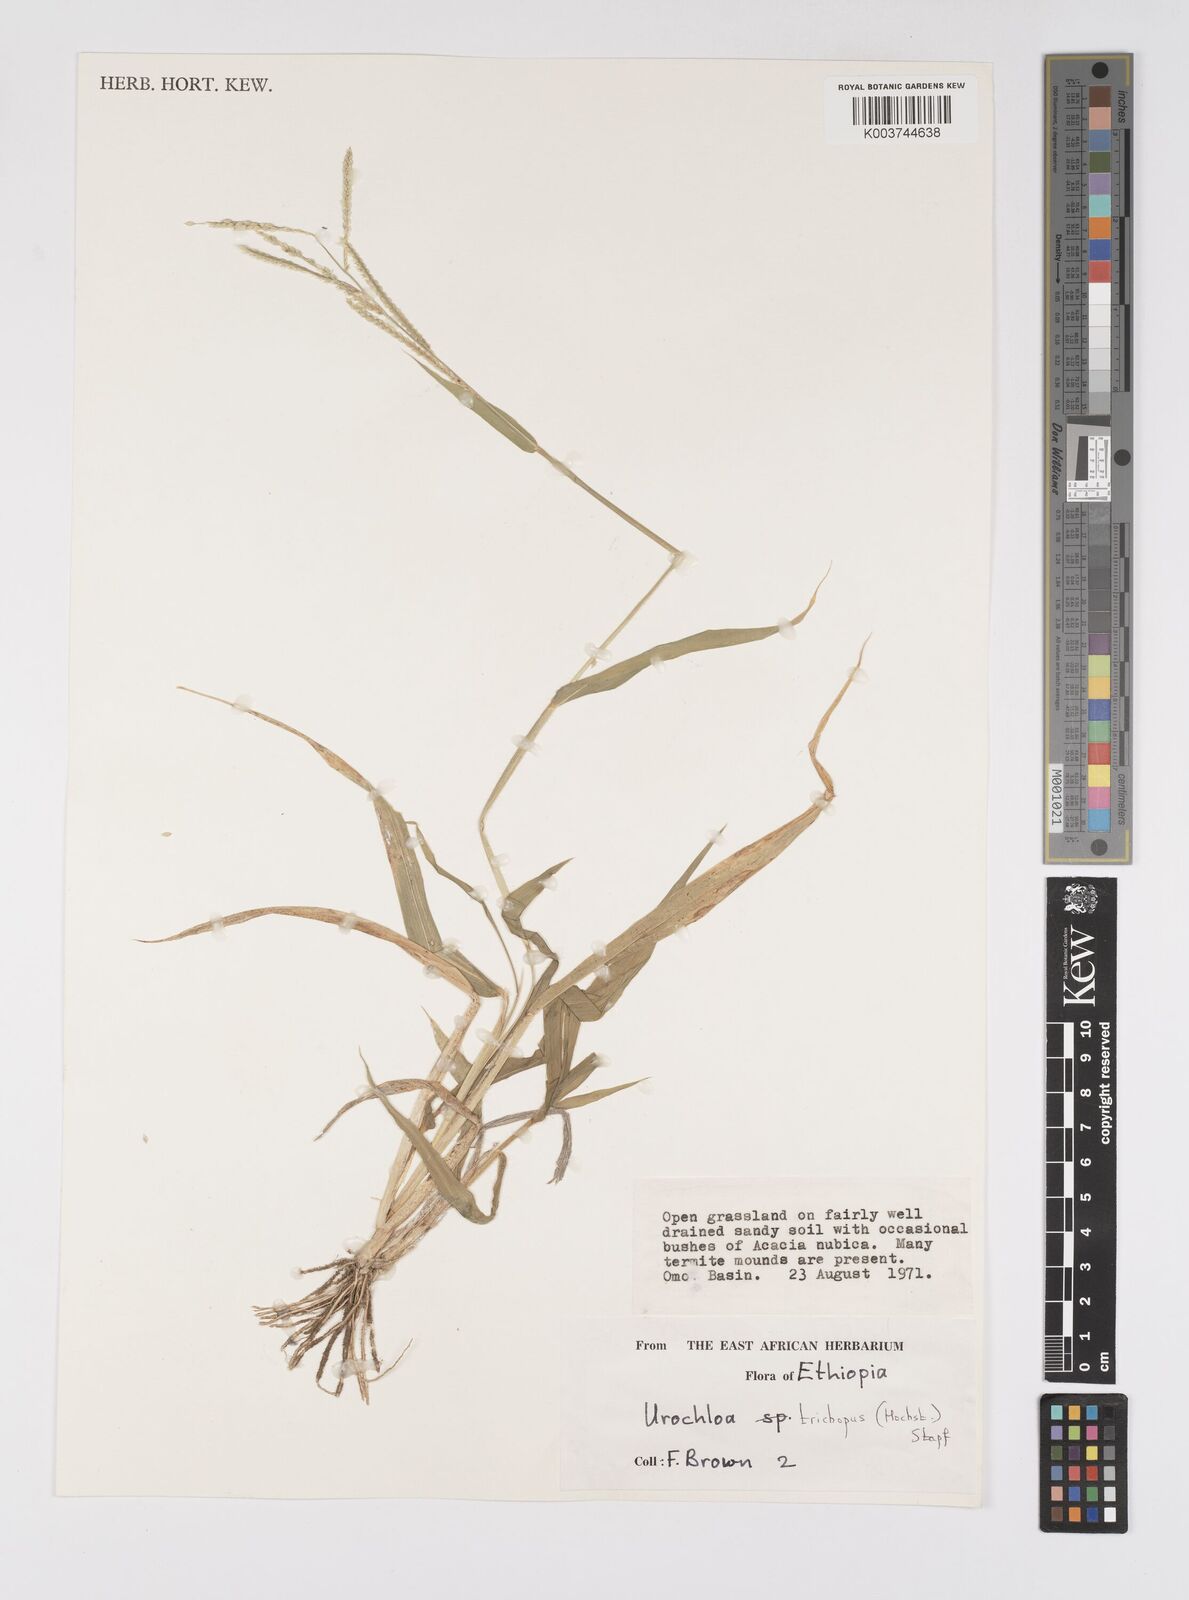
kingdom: Plantae
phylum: Tracheophyta
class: Liliopsida
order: Poales
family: Poaceae
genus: Urochloa
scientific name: Urochloa trichopus
